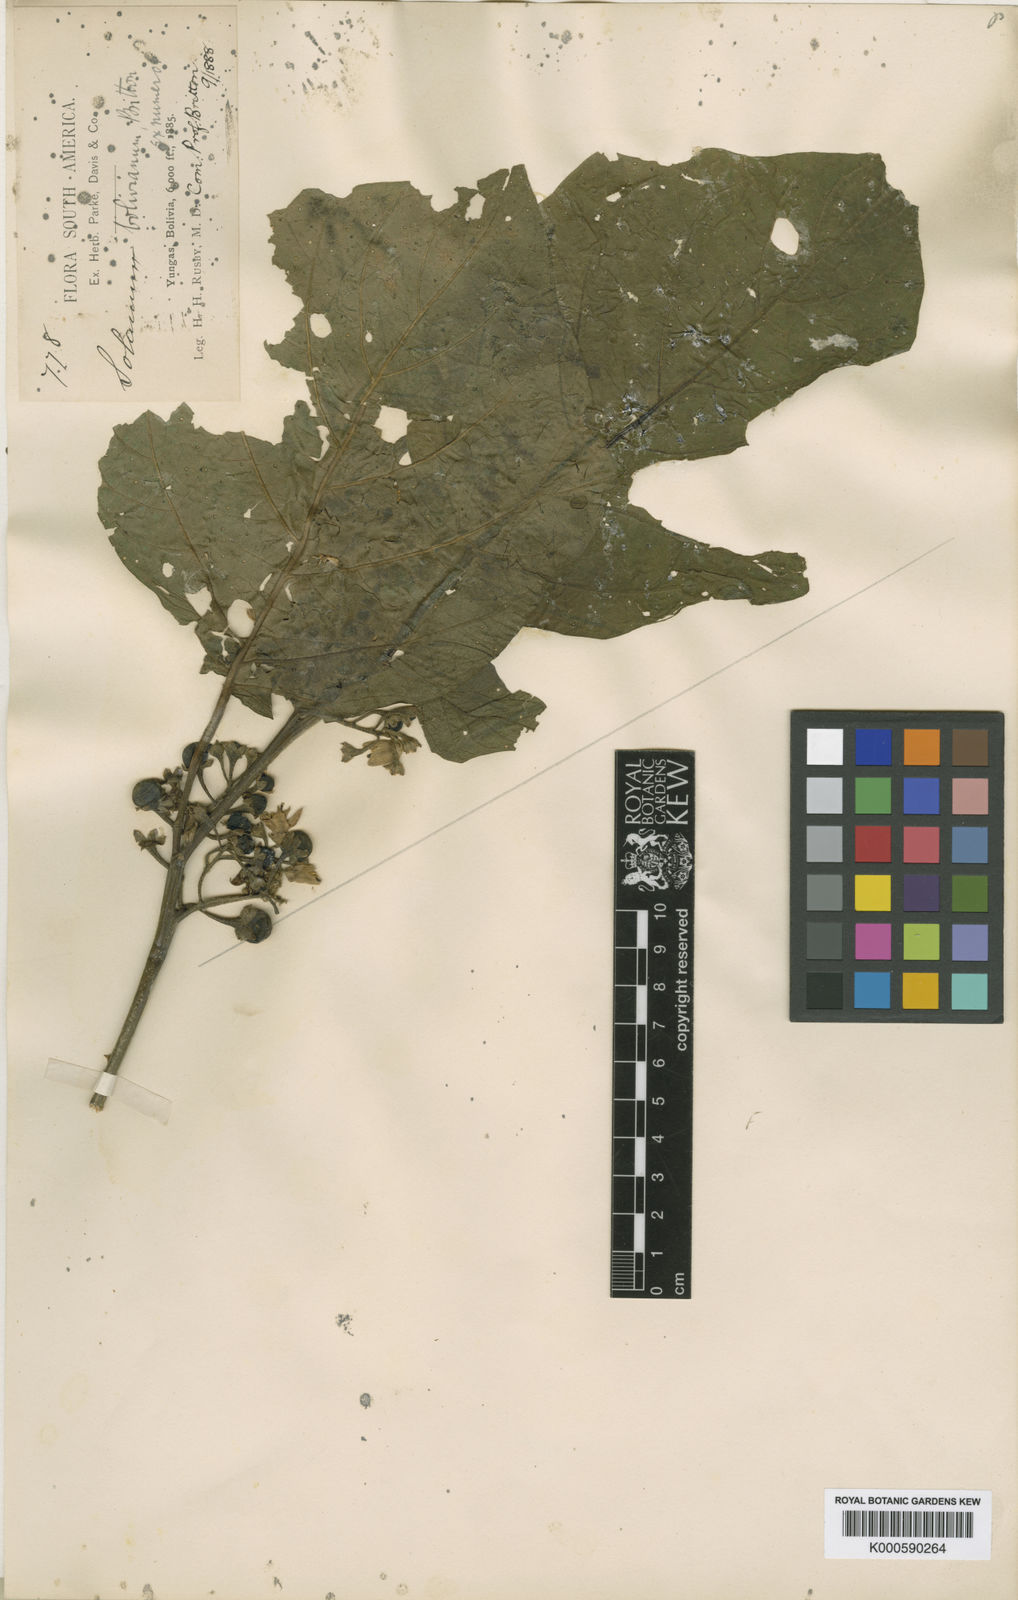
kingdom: Plantae
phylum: Tracheophyta
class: Magnoliopsida
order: Solanales
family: Solanaceae
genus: Solanum
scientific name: Solanum bolivianum
